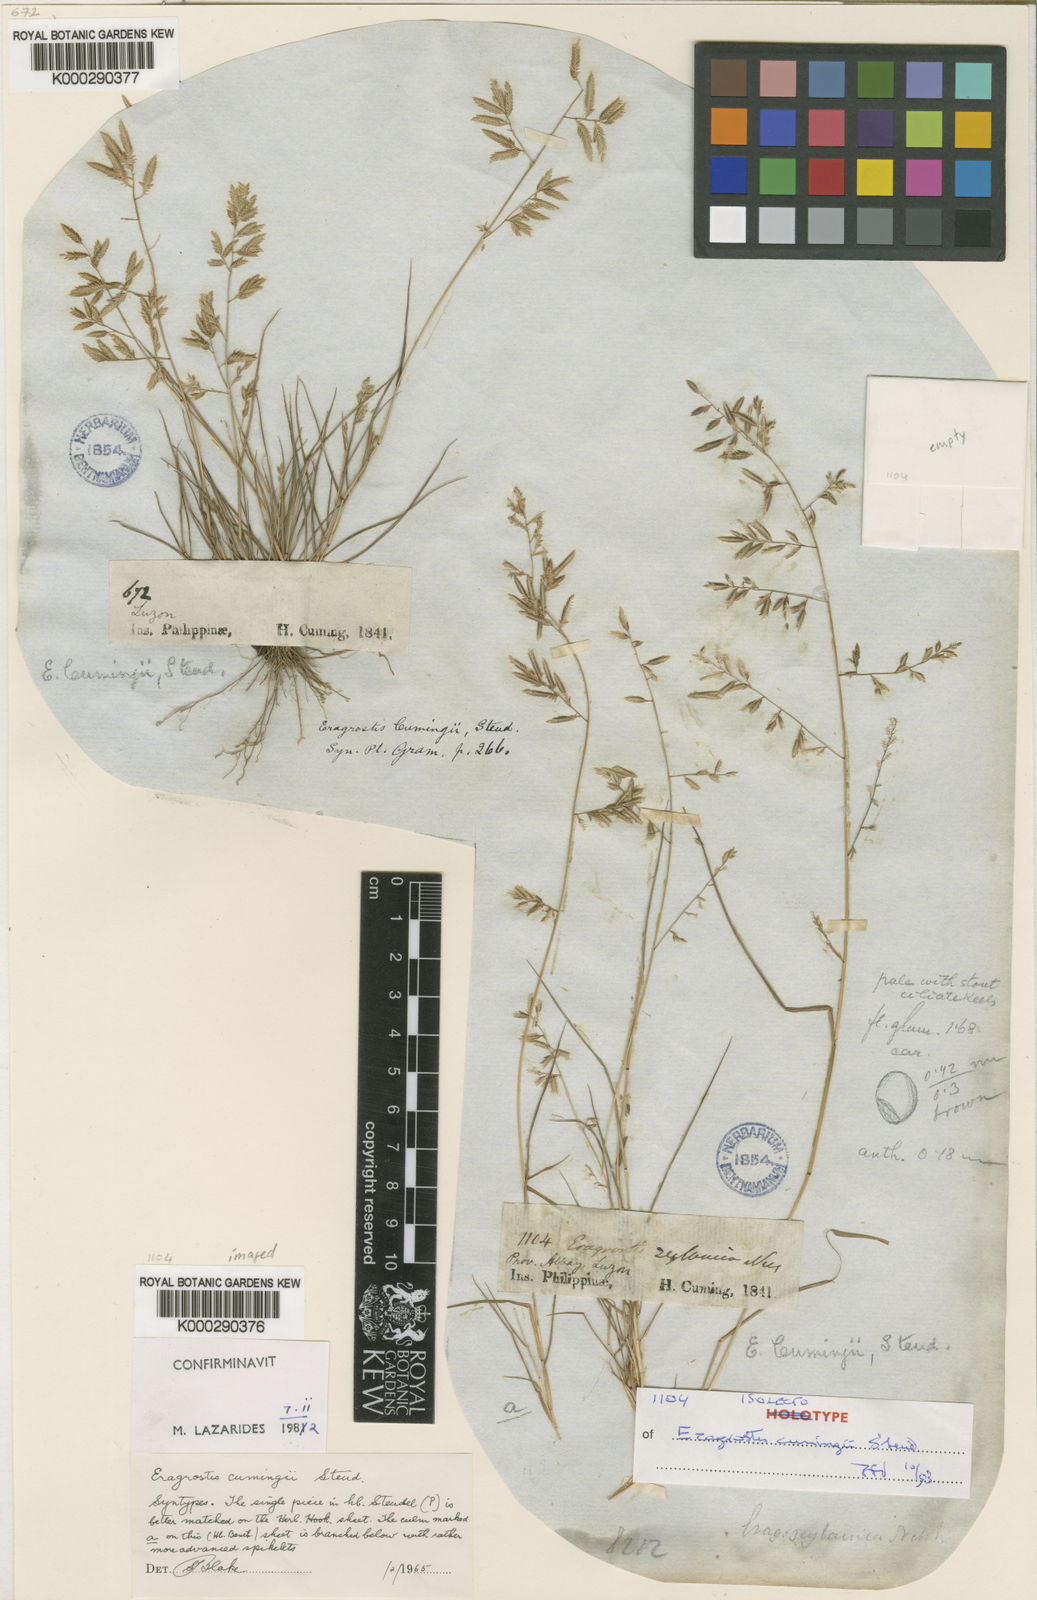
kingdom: Plantae
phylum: Tracheophyta
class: Liliopsida
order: Poales
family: Poaceae
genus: Eragrostis
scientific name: Eragrostis cumingii
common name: Cuming's lovegrass
